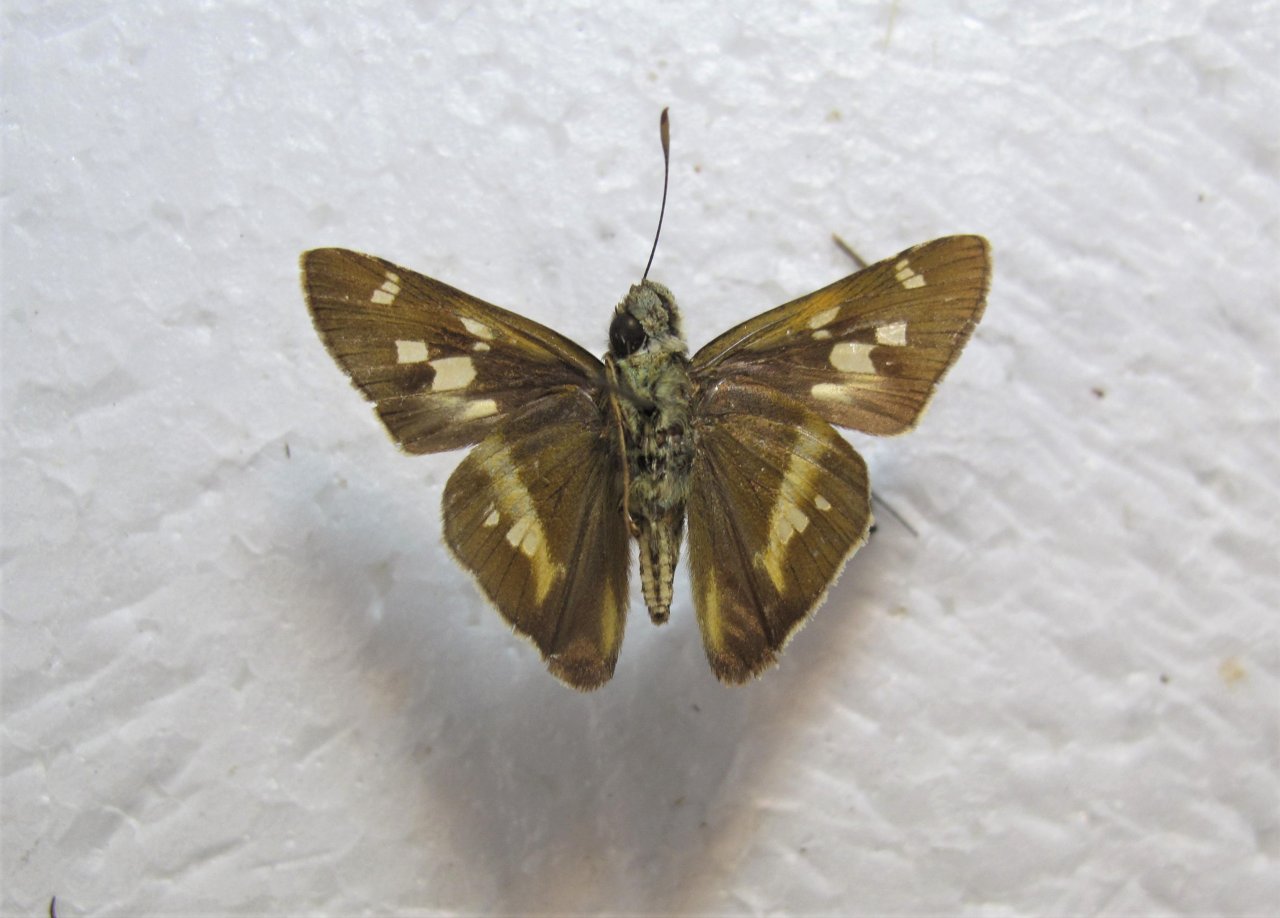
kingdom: Animalia
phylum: Arthropoda
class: Insecta
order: Lepidoptera
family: Hesperiidae
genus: Tirynthia
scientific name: Tirynthia conflua
